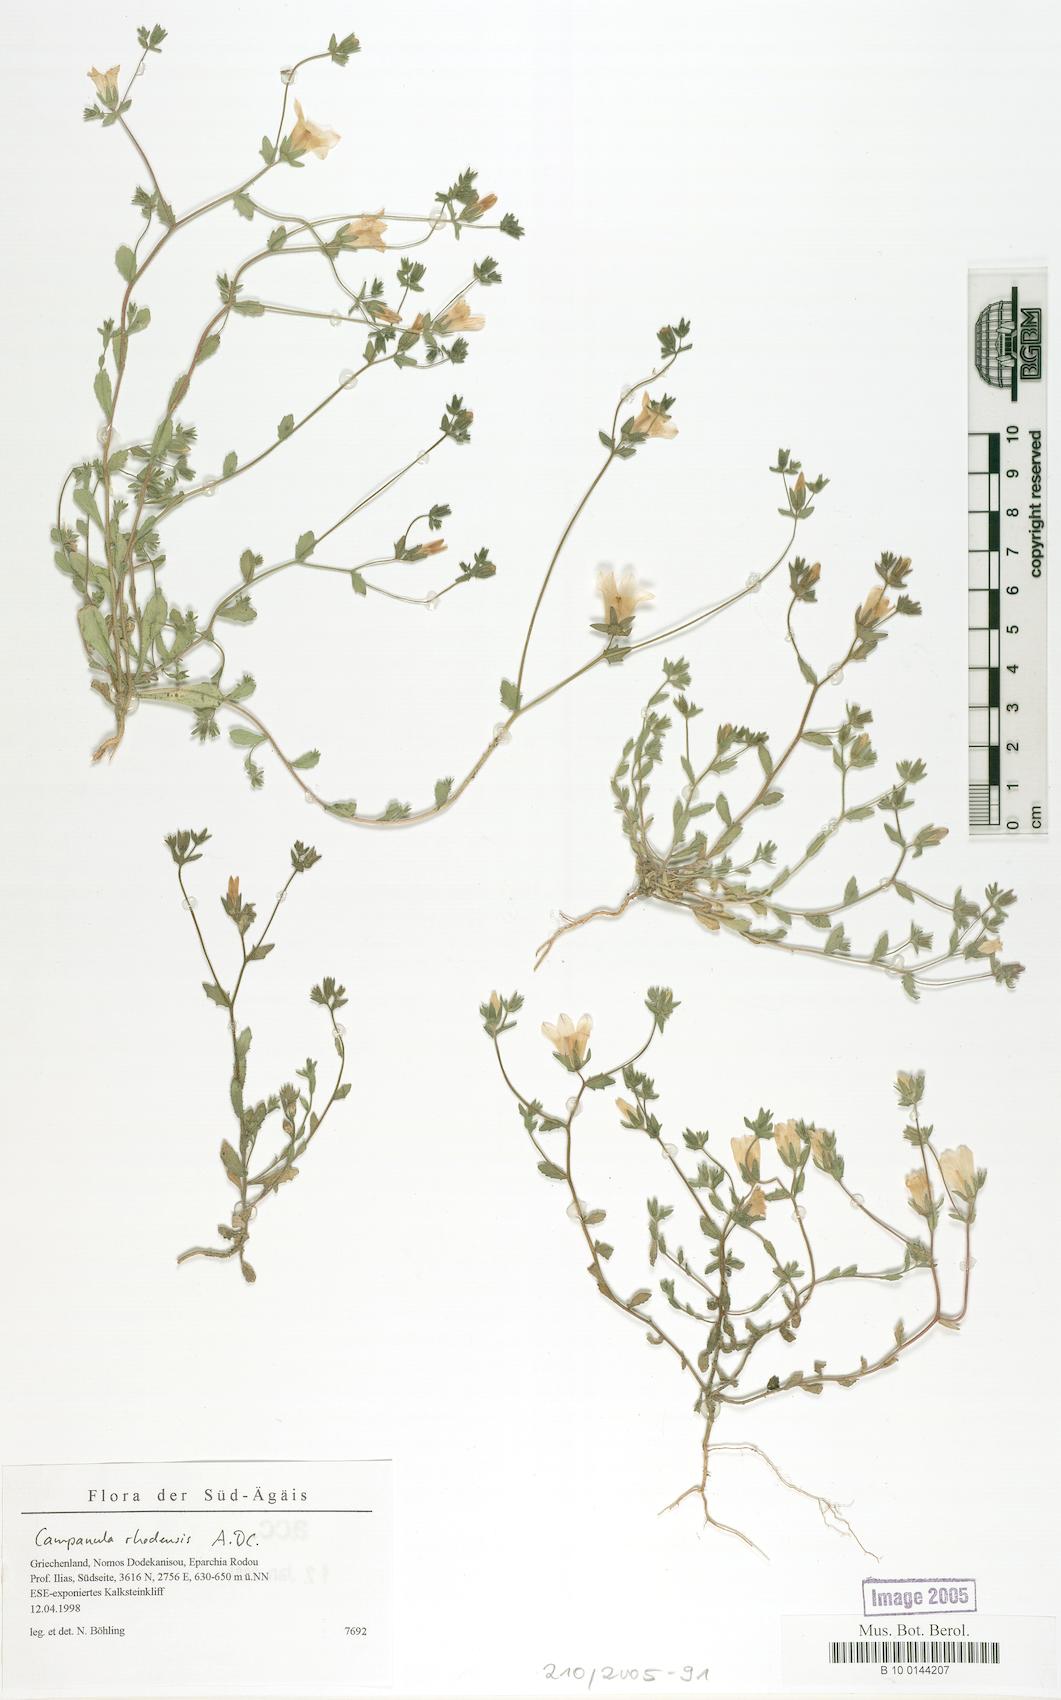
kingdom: Plantae
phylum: Tracheophyta
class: Magnoliopsida
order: Asterales
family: Campanulaceae
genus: Campanula
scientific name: Campanula rhodensis
